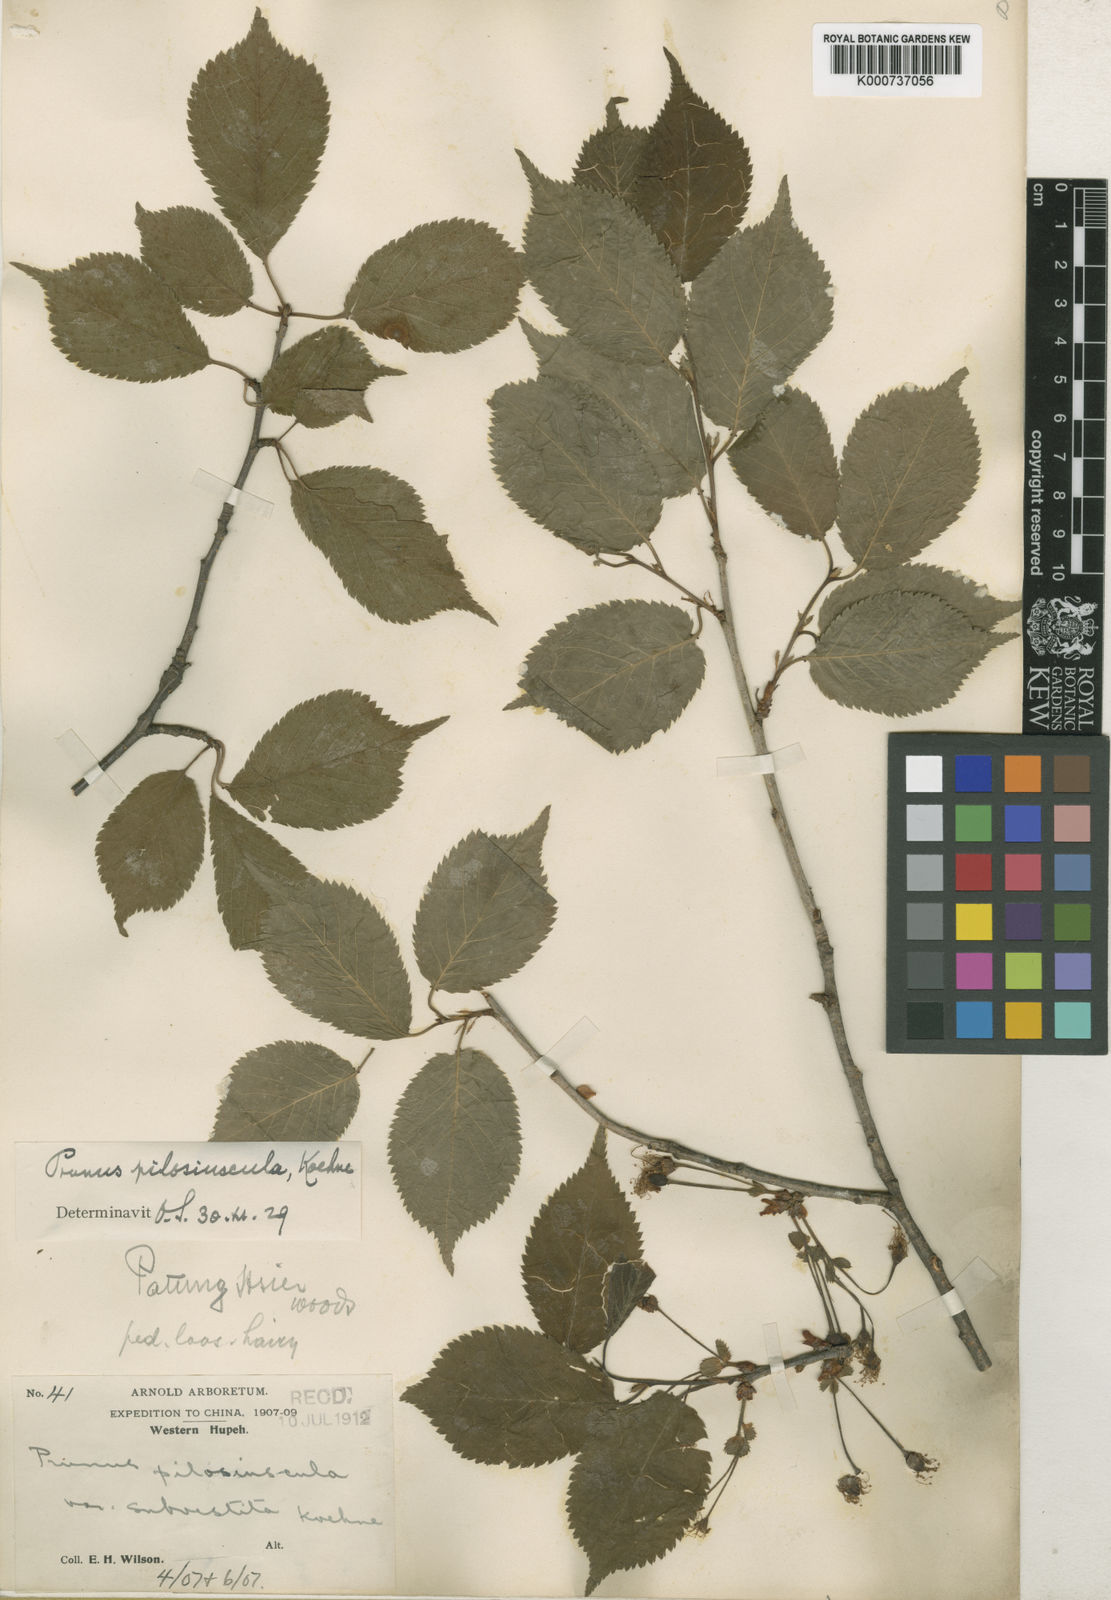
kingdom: Plantae
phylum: Tracheophyta
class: Magnoliopsida
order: Rosales
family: Rosaceae
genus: Prunus
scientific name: Prunus
